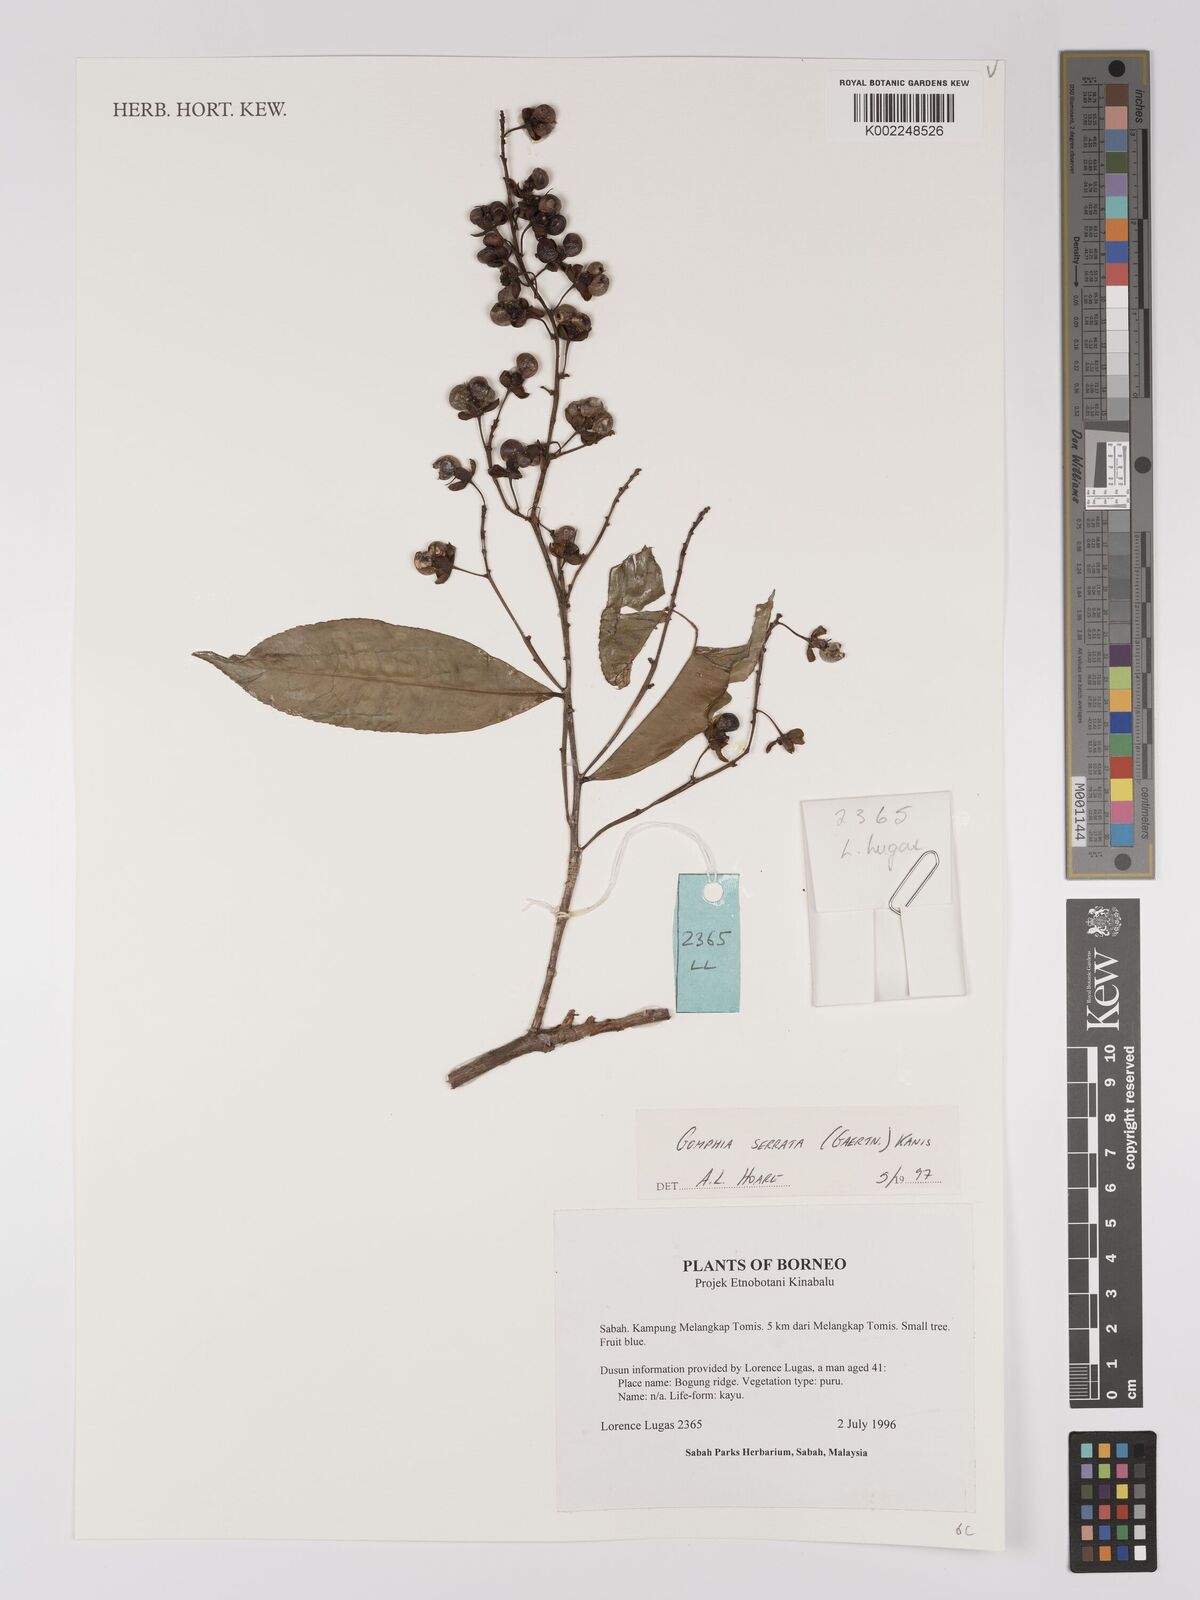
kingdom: Plantae
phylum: Tracheophyta
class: Magnoliopsida
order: Malpighiales
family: Ochnaceae
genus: Gomphia
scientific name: Gomphia serrata
